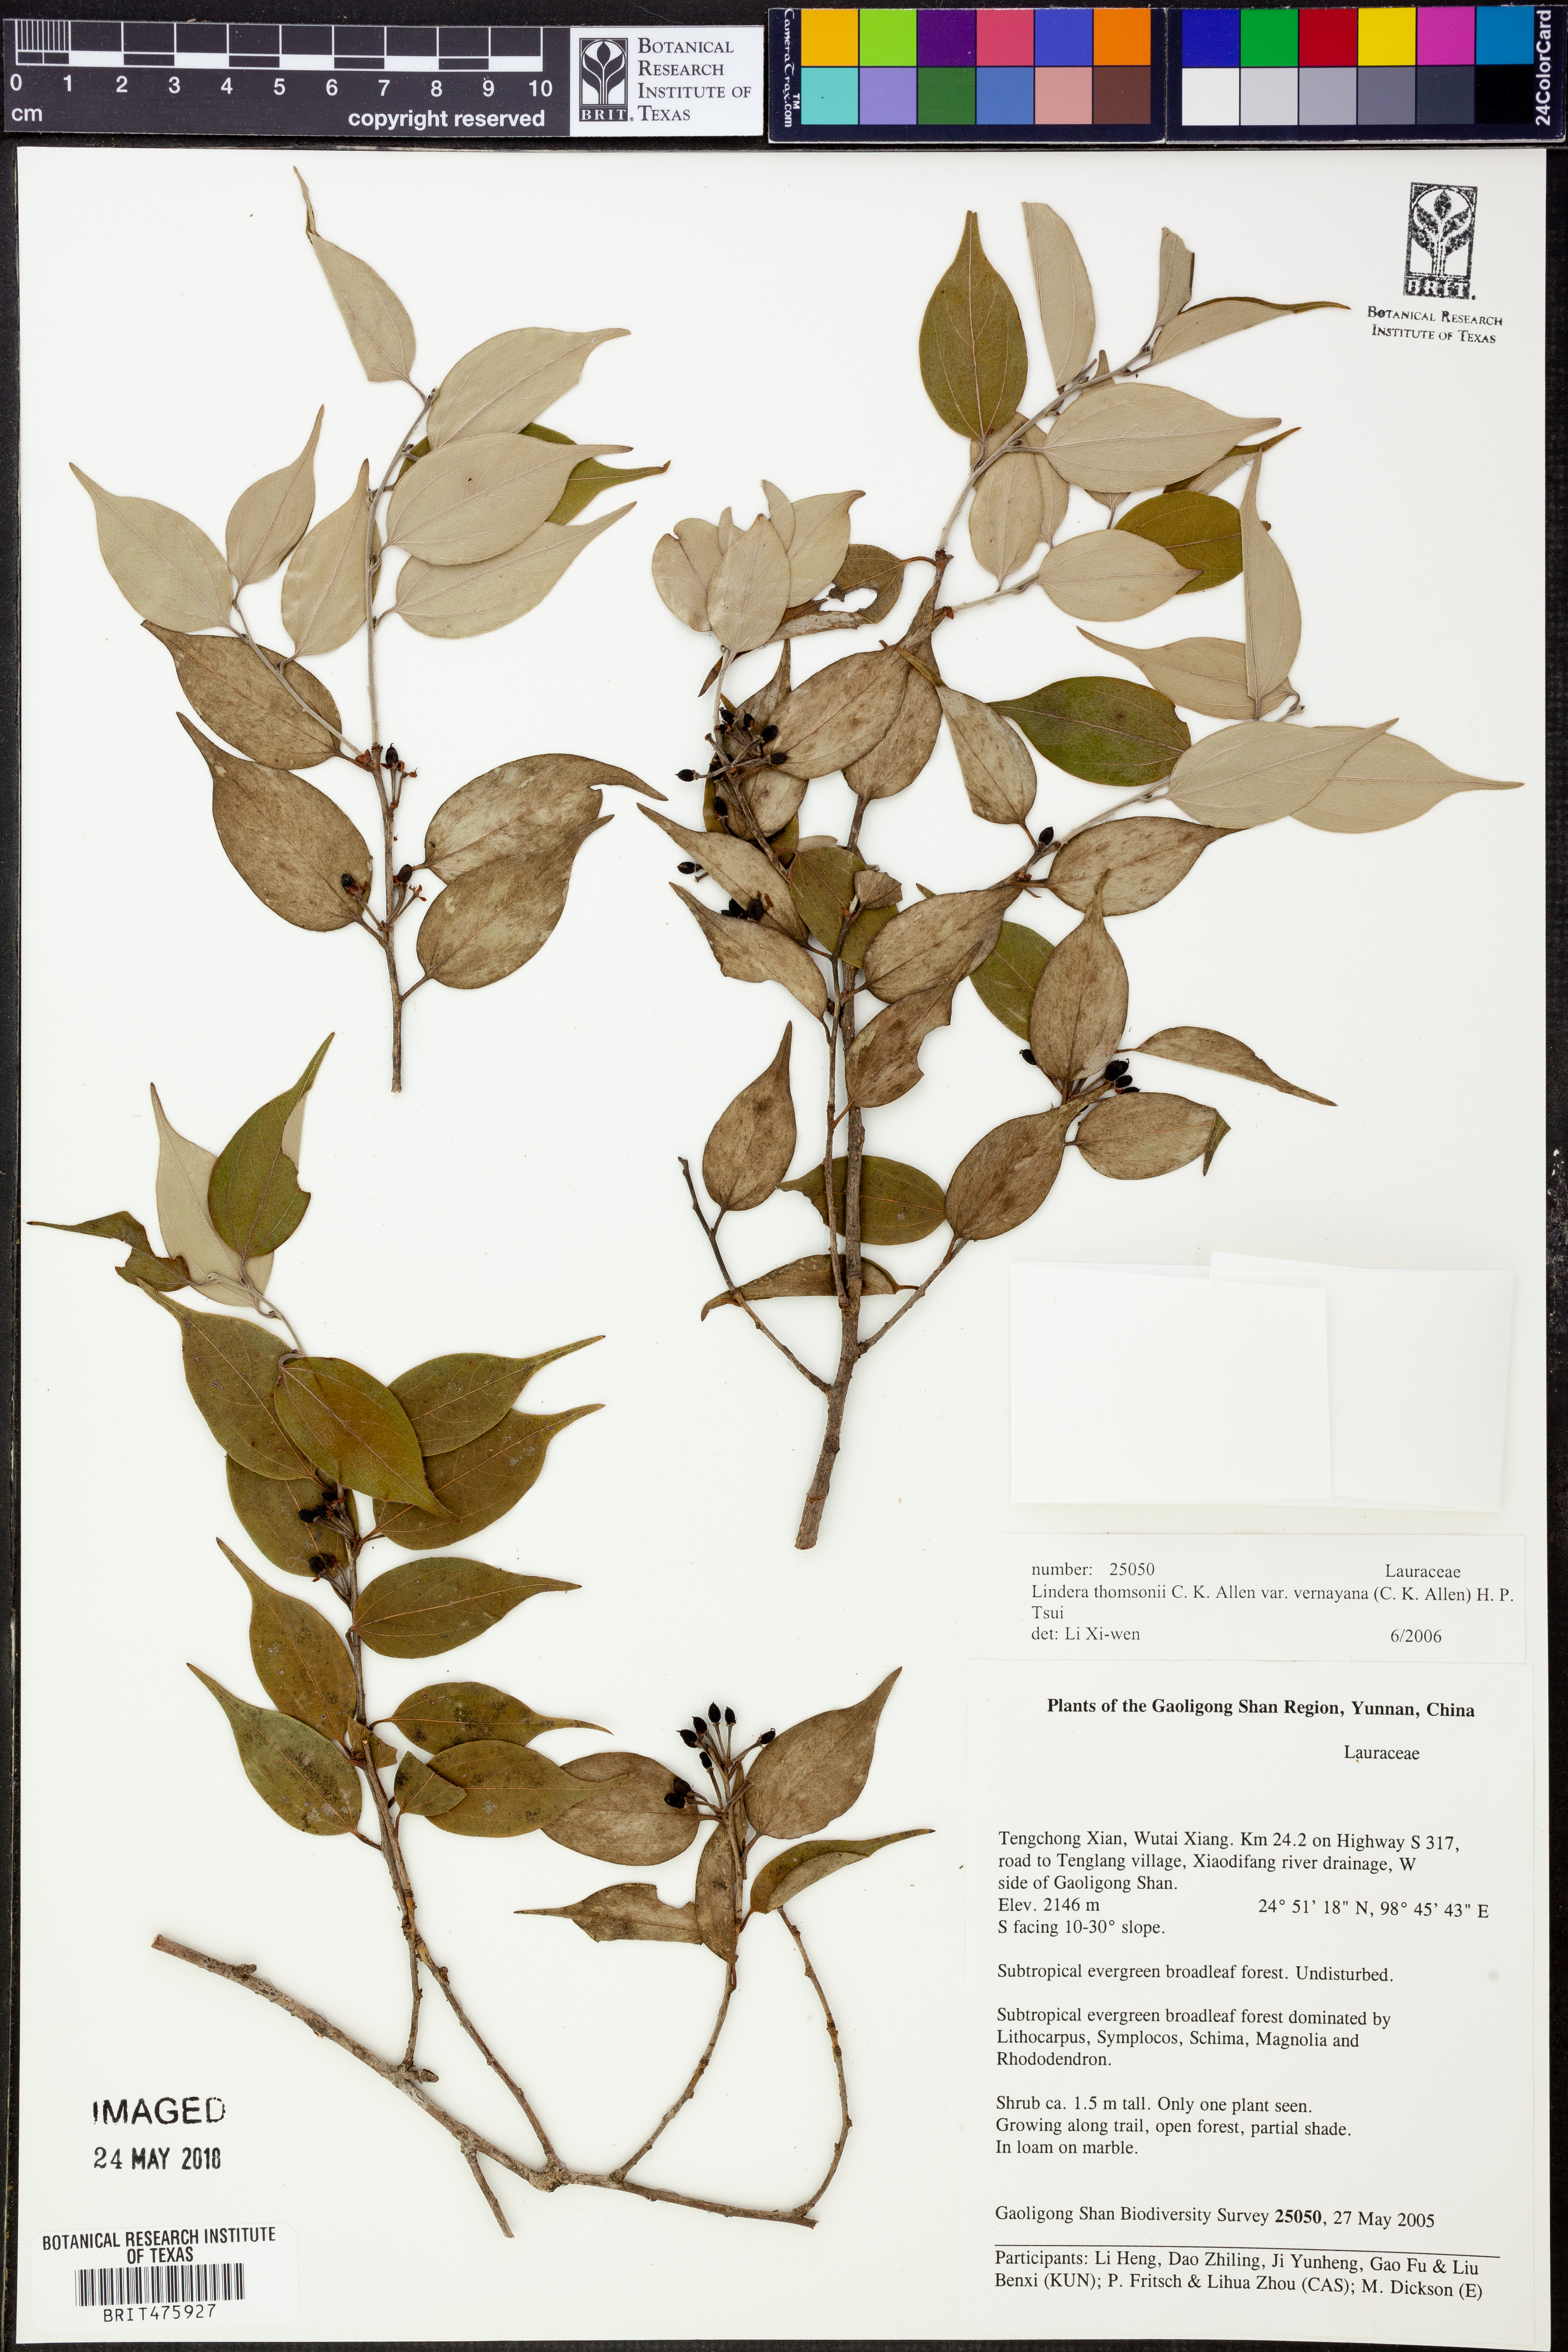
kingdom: Plantae
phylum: Tracheophyta
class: Magnoliopsida
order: Laurales
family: Lauraceae
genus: Lindera
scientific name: Lindera thomsonii
